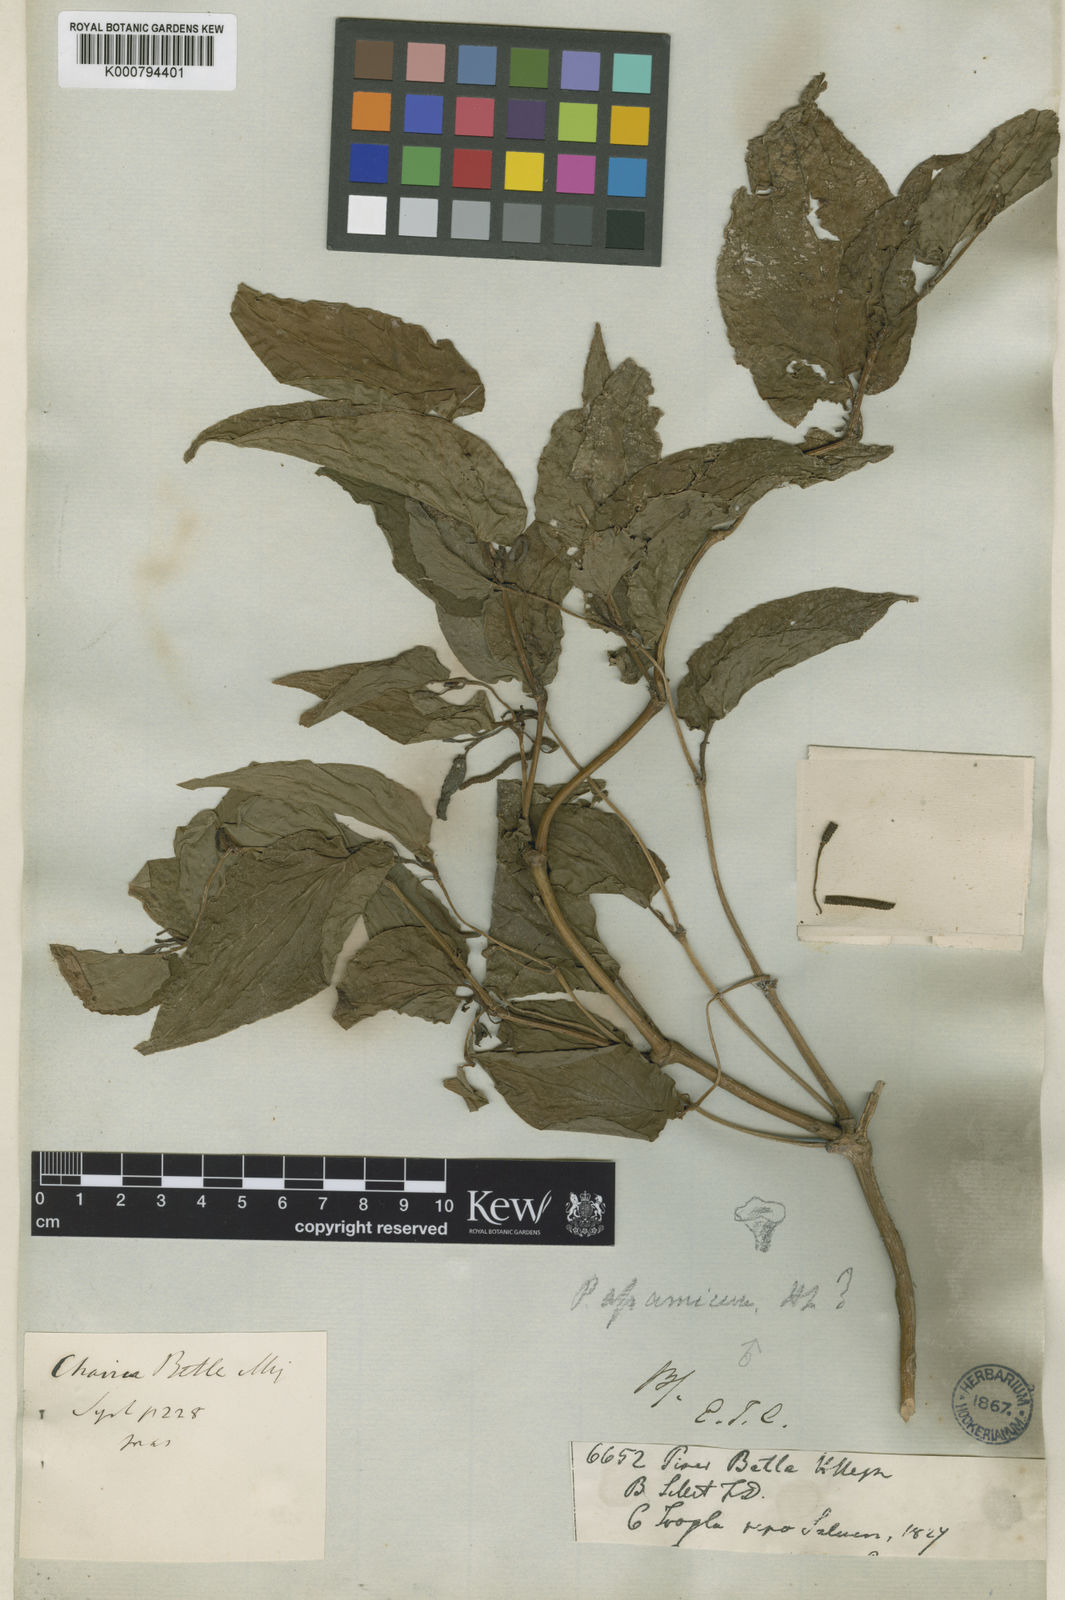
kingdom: Plantae
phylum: Tracheophyta
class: Magnoliopsida
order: Piperales
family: Piperaceae
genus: Piper
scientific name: Piper betle
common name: Betel pepper
